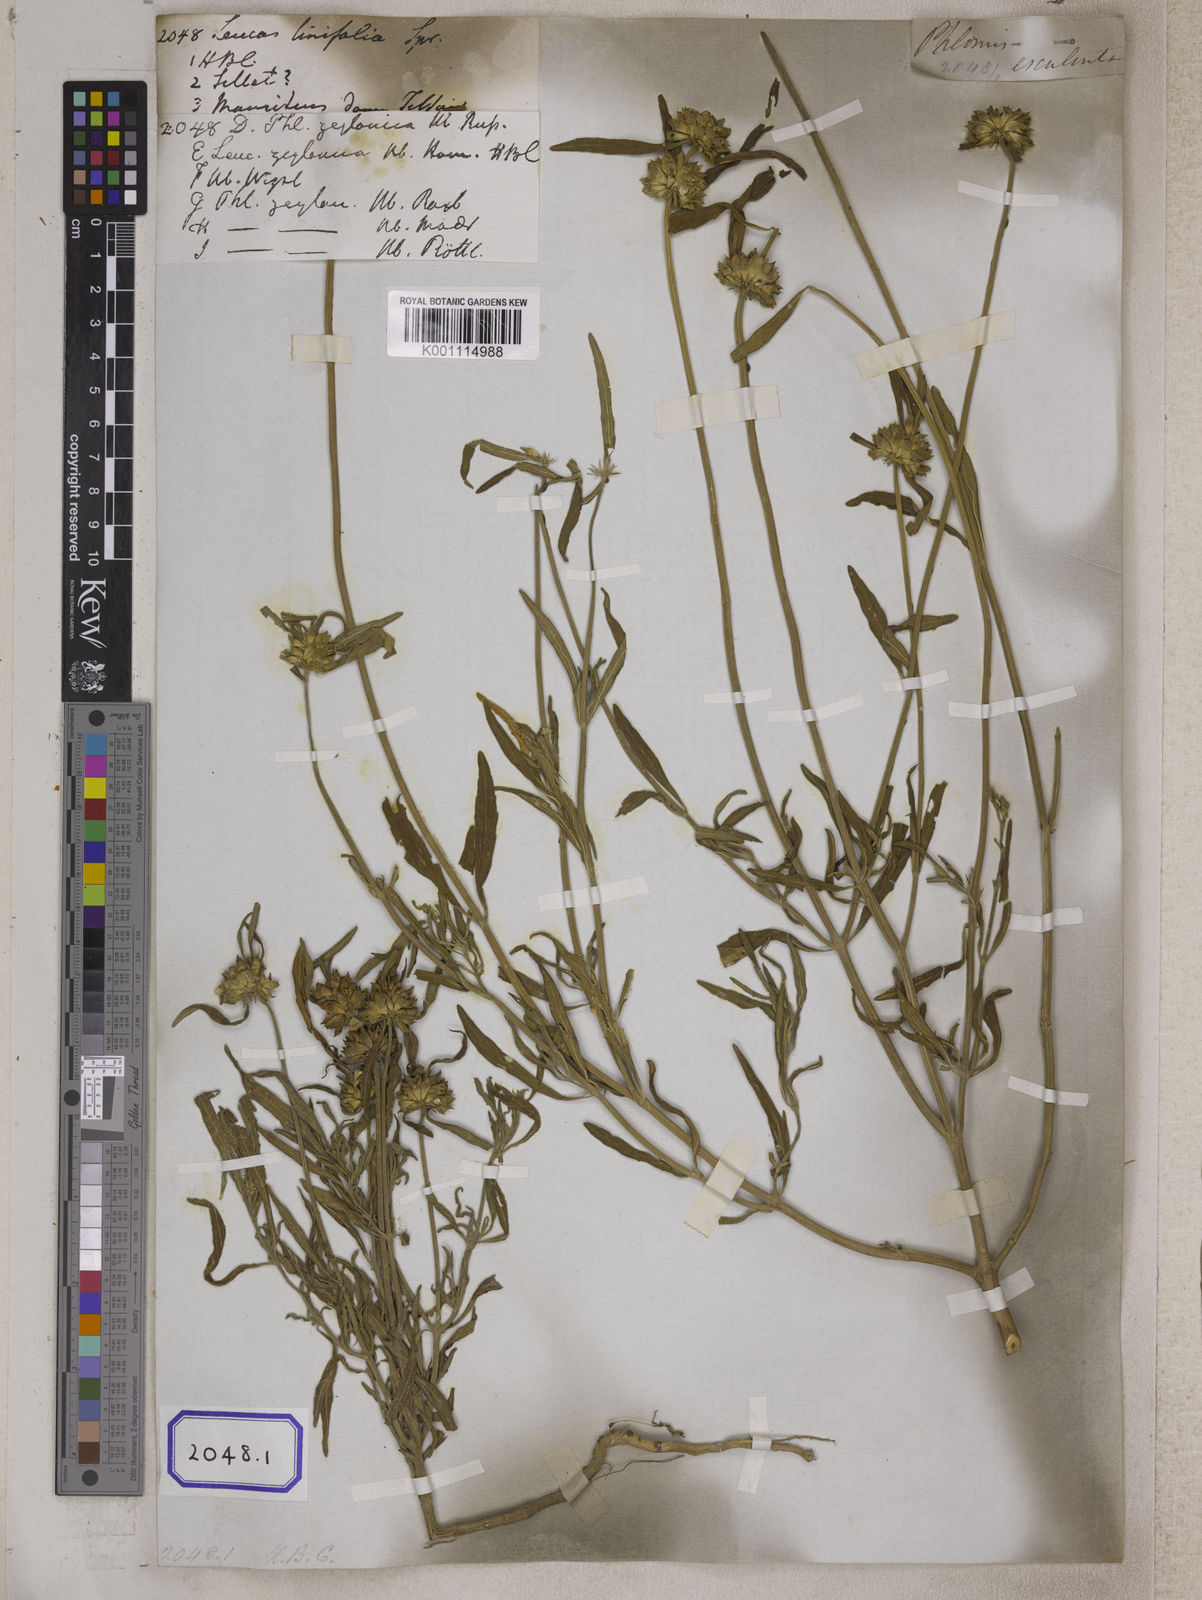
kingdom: Plantae
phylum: Tracheophyta
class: Magnoliopsida
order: Lamiales
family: Lamiaceae
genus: Leucas
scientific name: Leucas lavandulifolia
